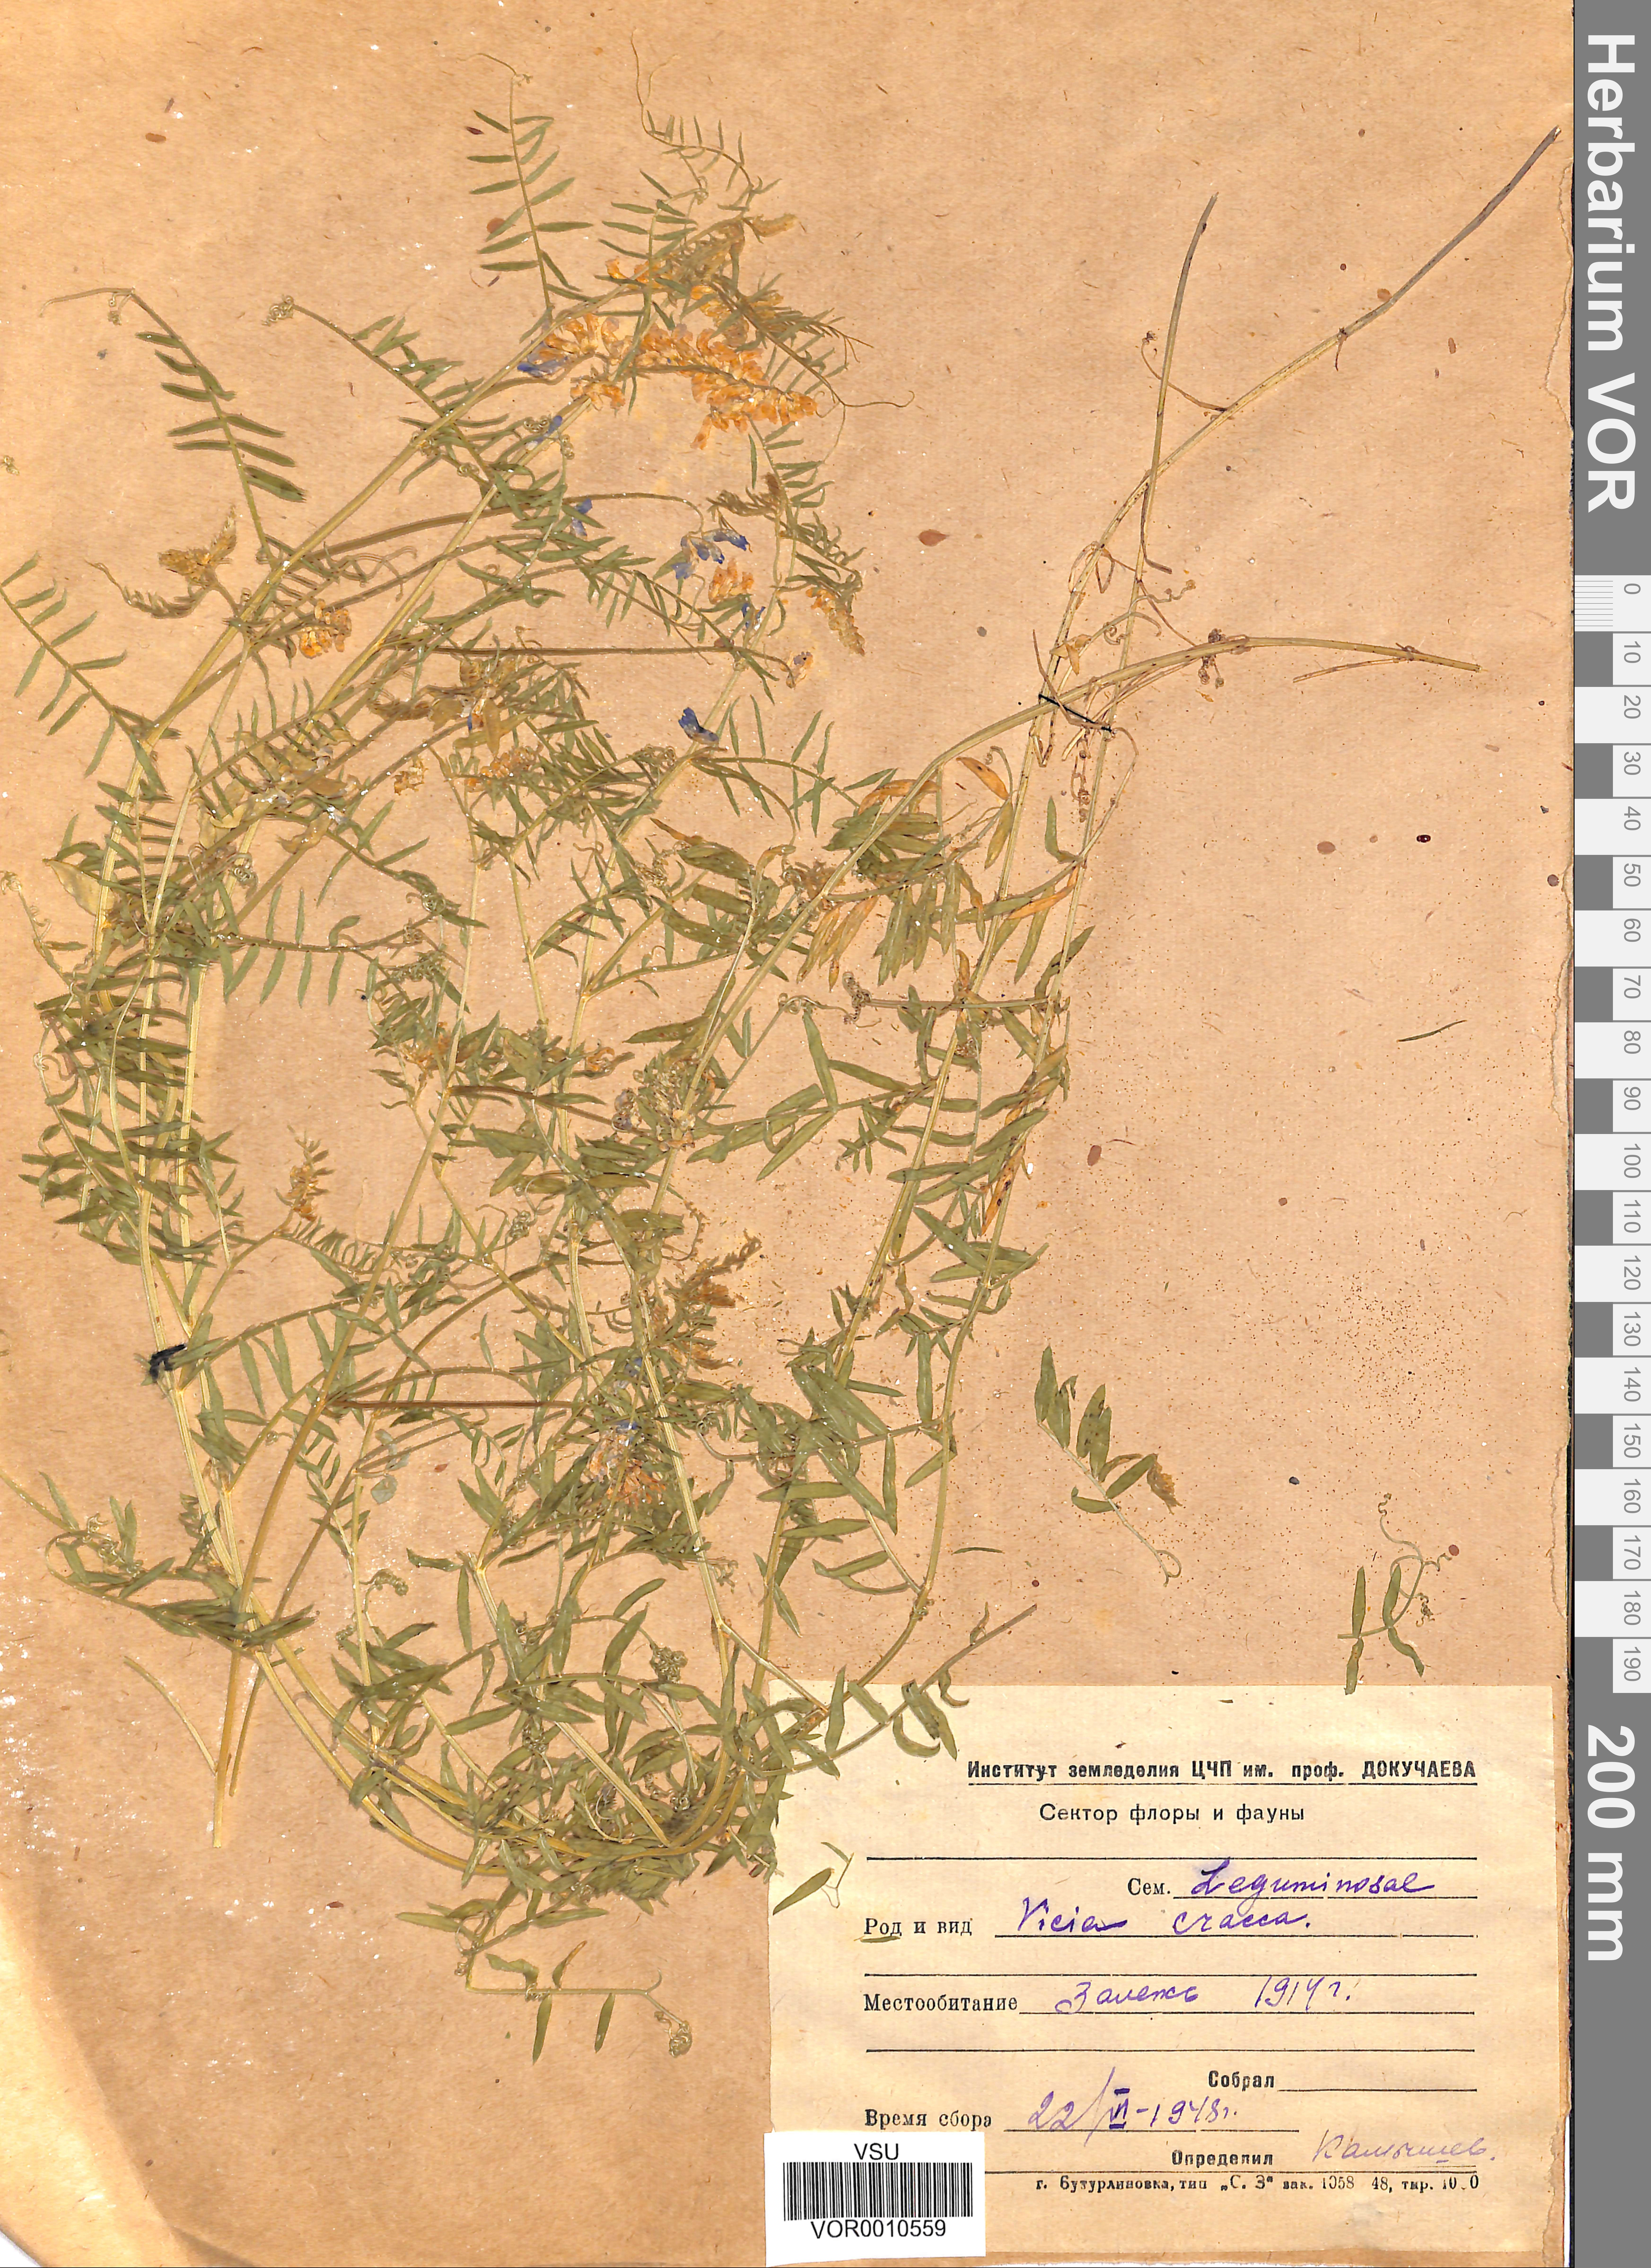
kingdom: Plantae
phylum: Tracheophyta
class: Magnoliopsida
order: Fabales
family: Fabaceae
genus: Vicia
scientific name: Vicia cracca
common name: Bird vetch
